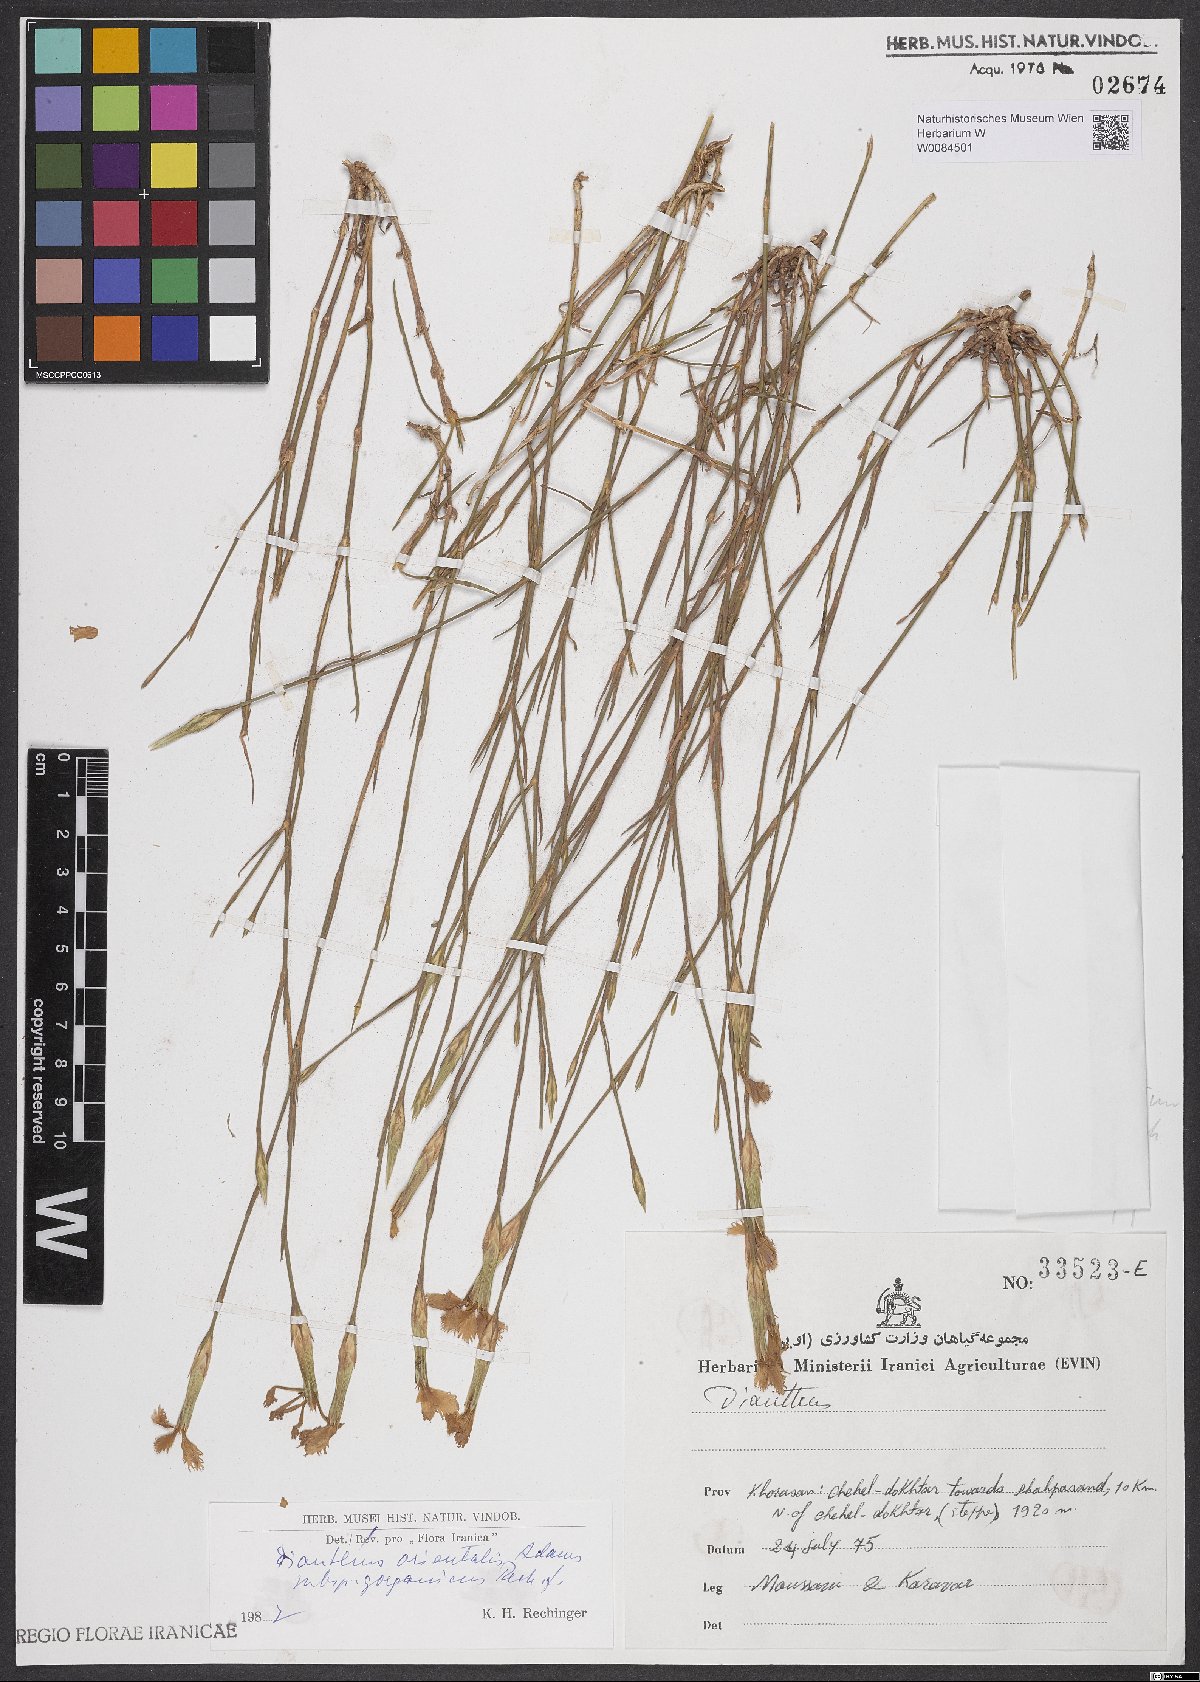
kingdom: Plantae
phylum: Tracheophyta
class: Magnoliopsida
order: Caryophyllales
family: Caryophyllaceae
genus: Dianthus
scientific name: Dianthus orientalis
